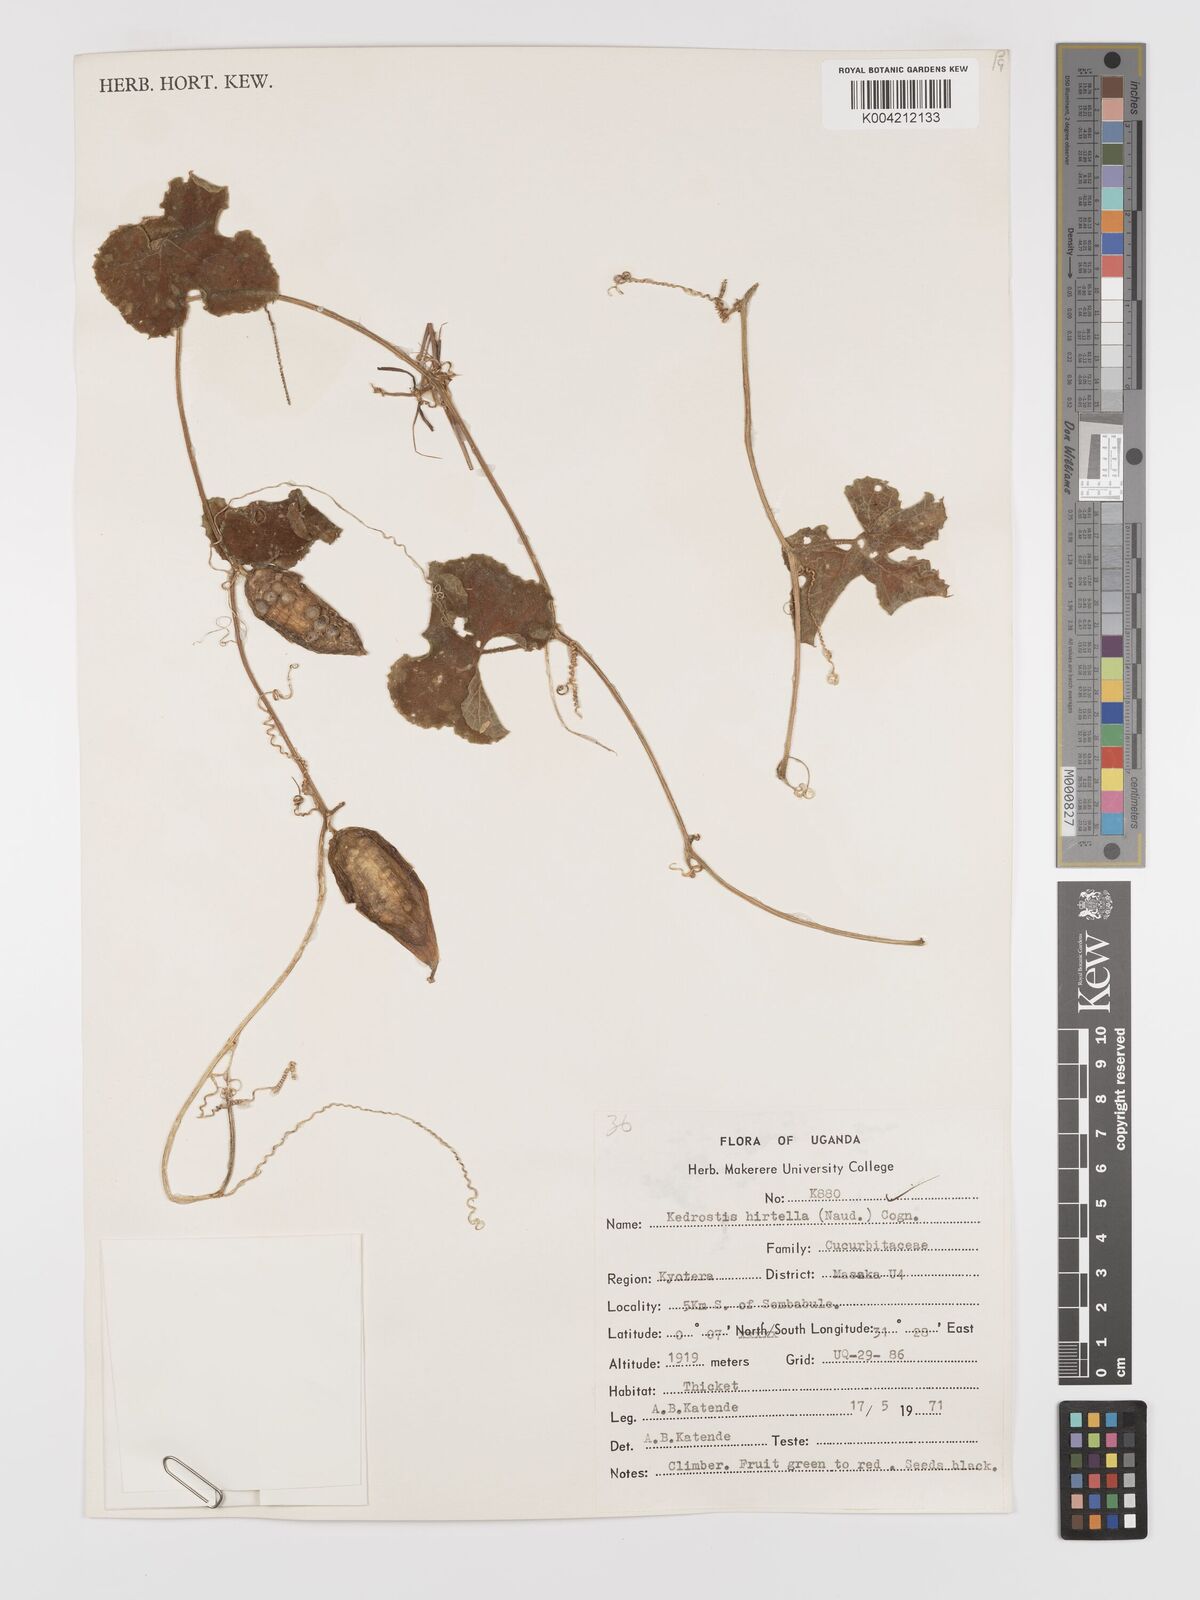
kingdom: Plantae
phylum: Tracheophyta
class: Magnoliopsida
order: Cucurbitales
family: Cucurbitaceae
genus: Kedrostis
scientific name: Kedrostis leloja
